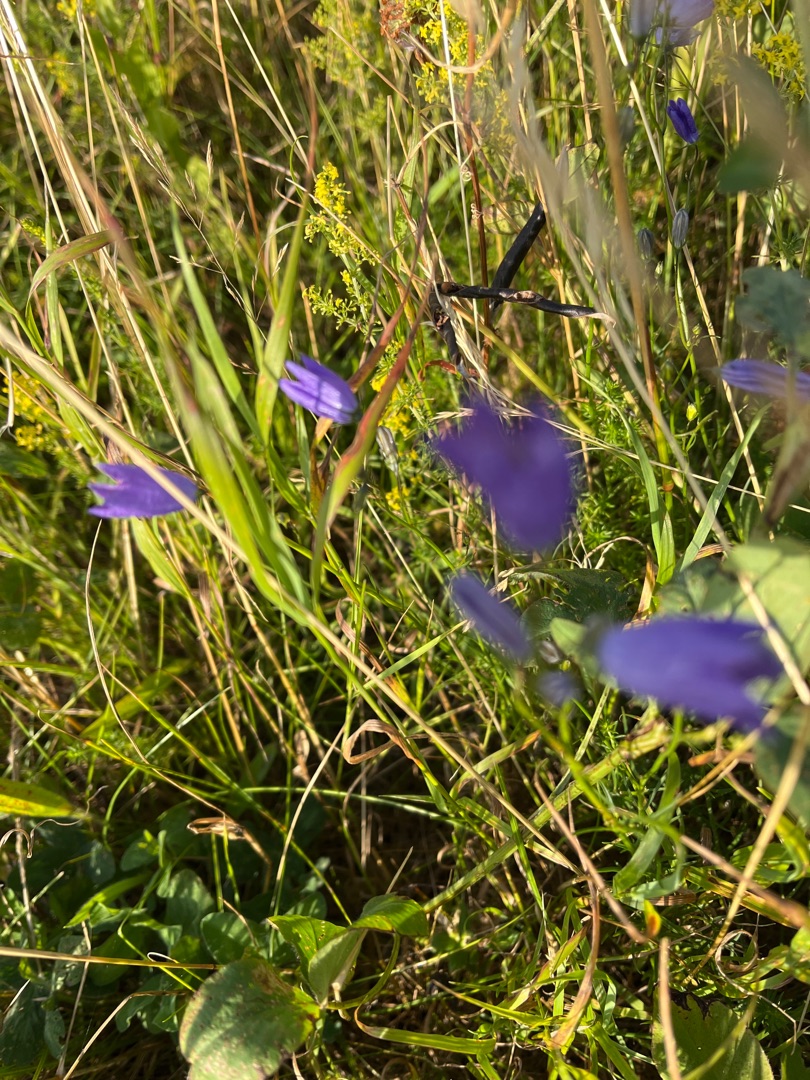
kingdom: Plantae
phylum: Tracheophyta
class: Magnoliopsida
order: Asterales
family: Campanulaceae
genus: Campanula
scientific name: Campanula rotundifolia
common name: Liden klokke
